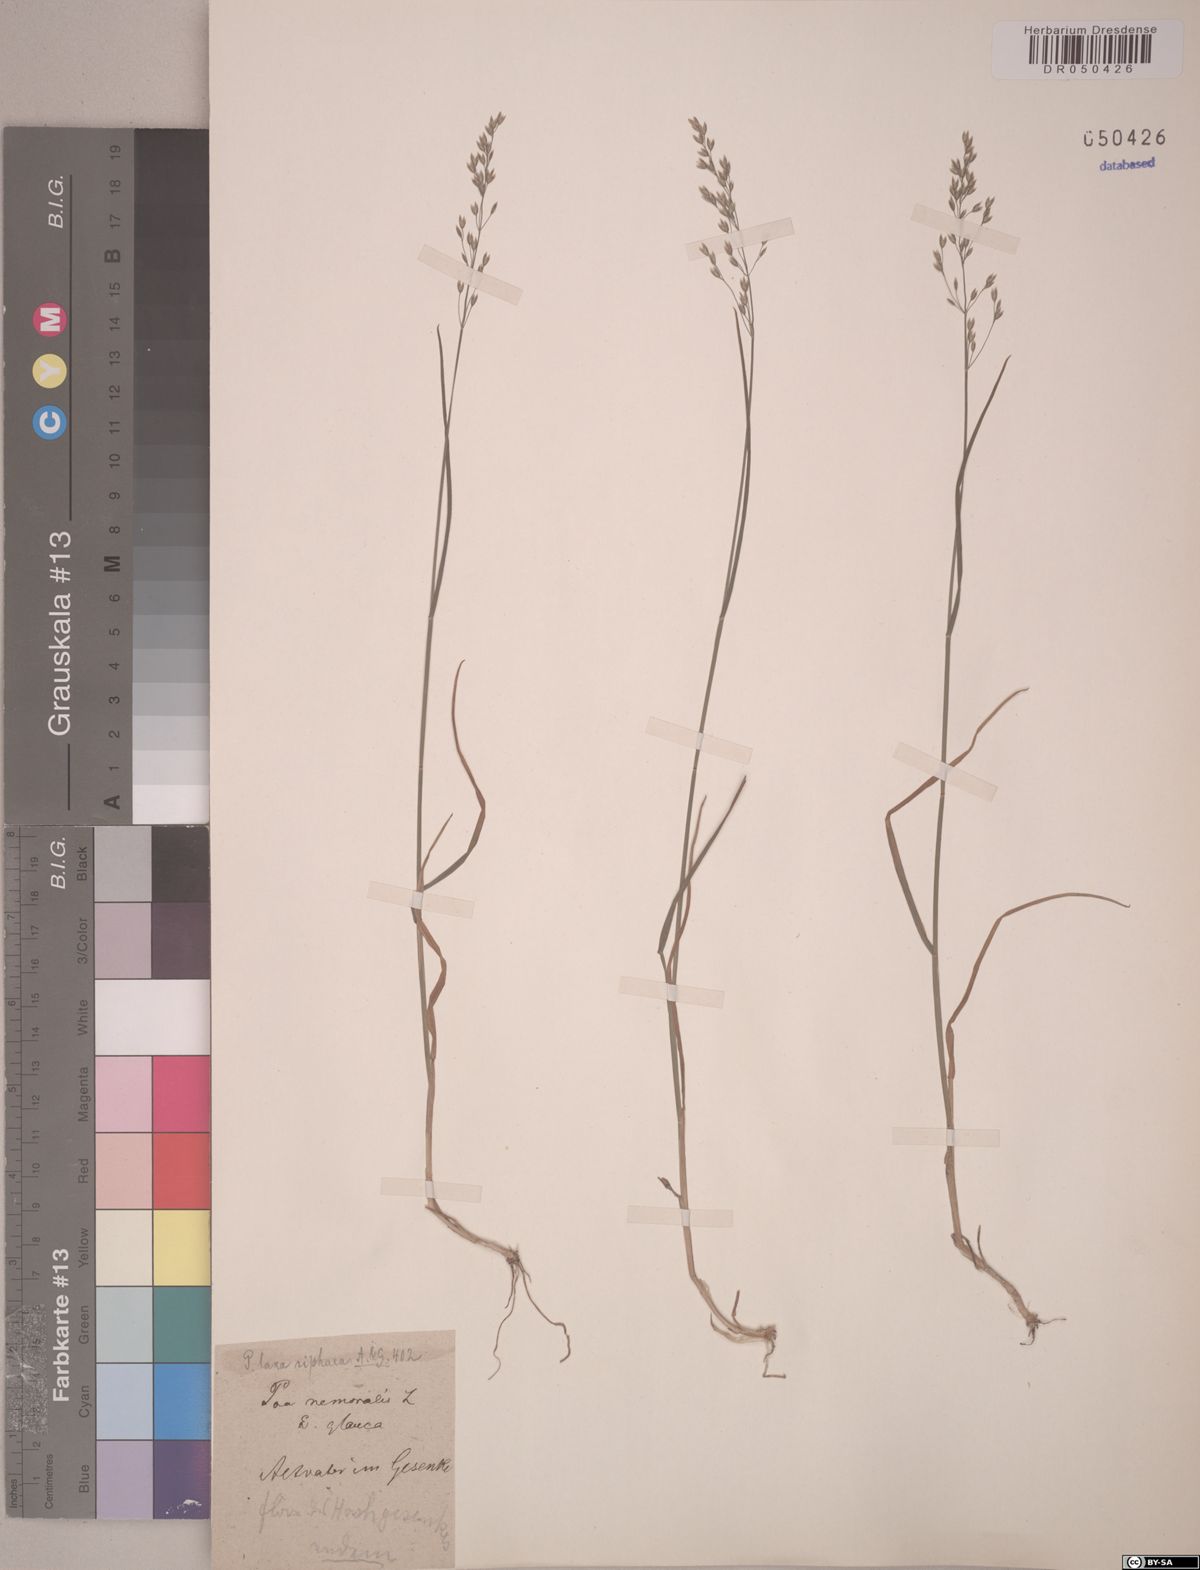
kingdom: Plantae
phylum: Tracheophyta
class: Liliopsida
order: Poales
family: Poaceae
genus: Poa
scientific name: Poa riphaea
